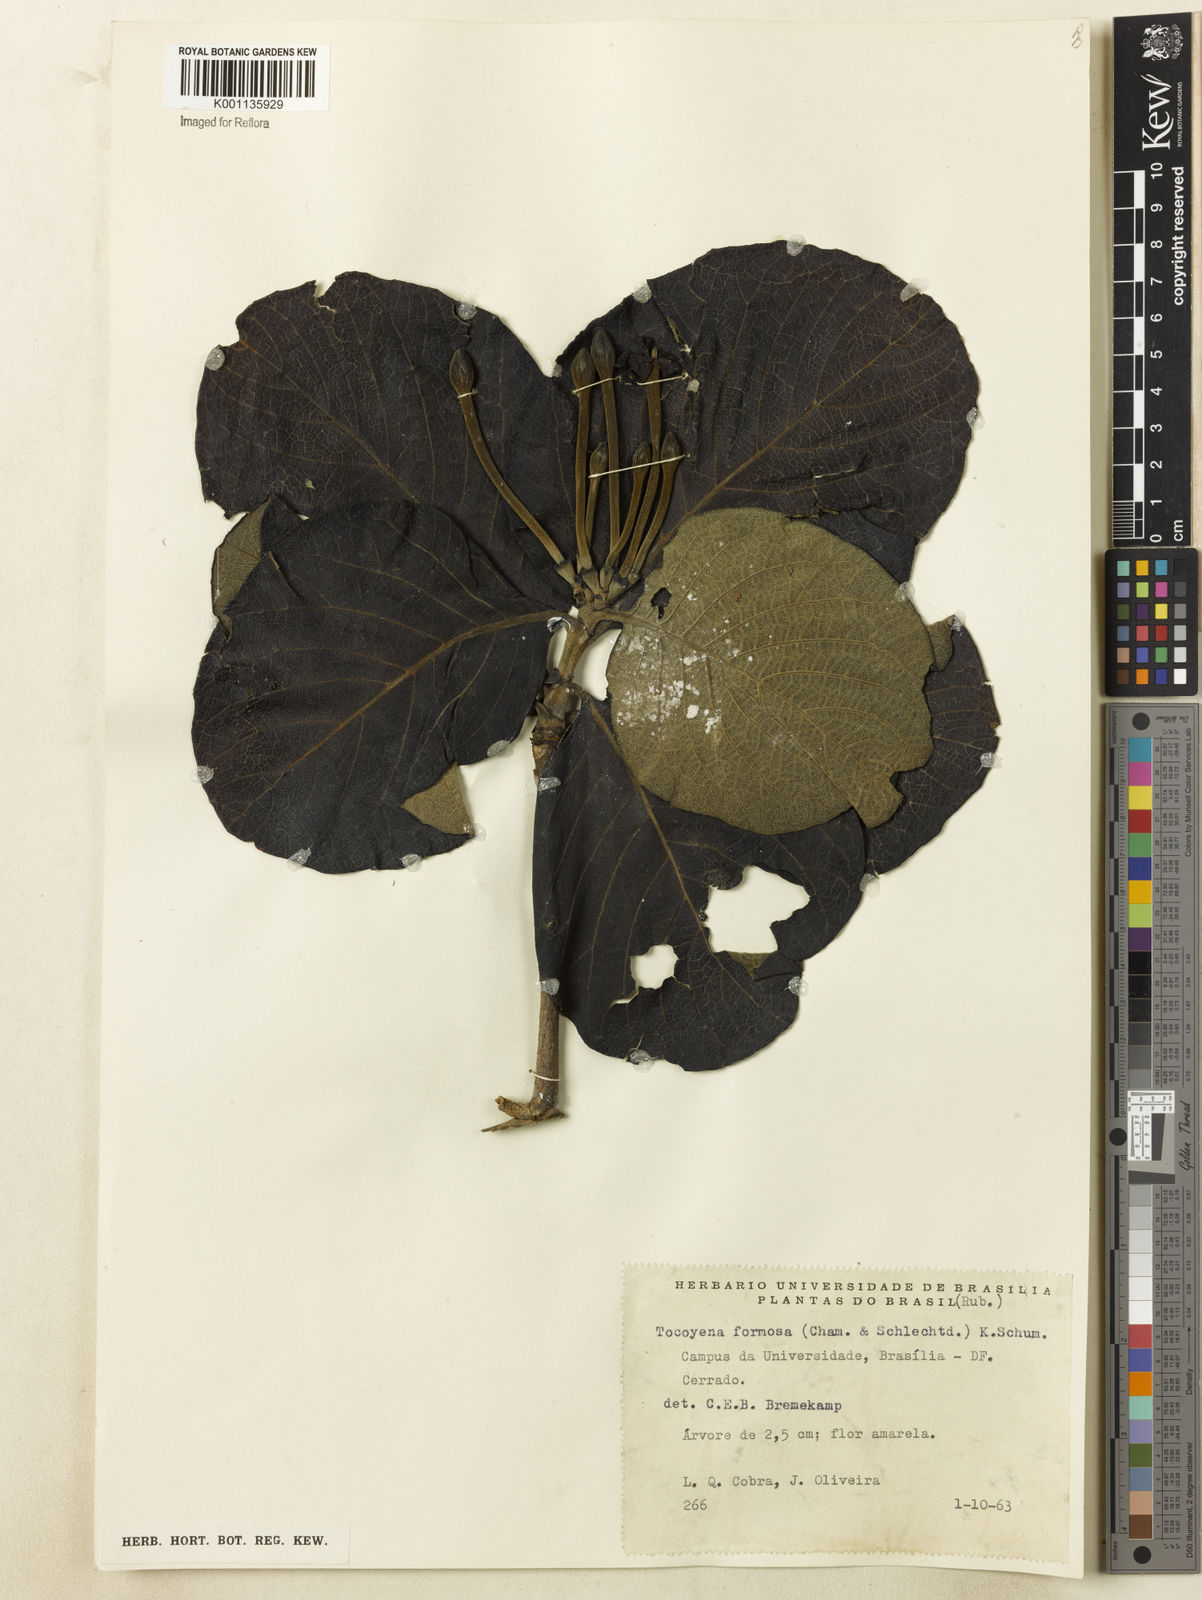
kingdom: Plantae
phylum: Tracheophyta
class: Magnoliopsida
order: Gentianales
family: Rubiaceae
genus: Tocoyena
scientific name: Tocoyena formosa
